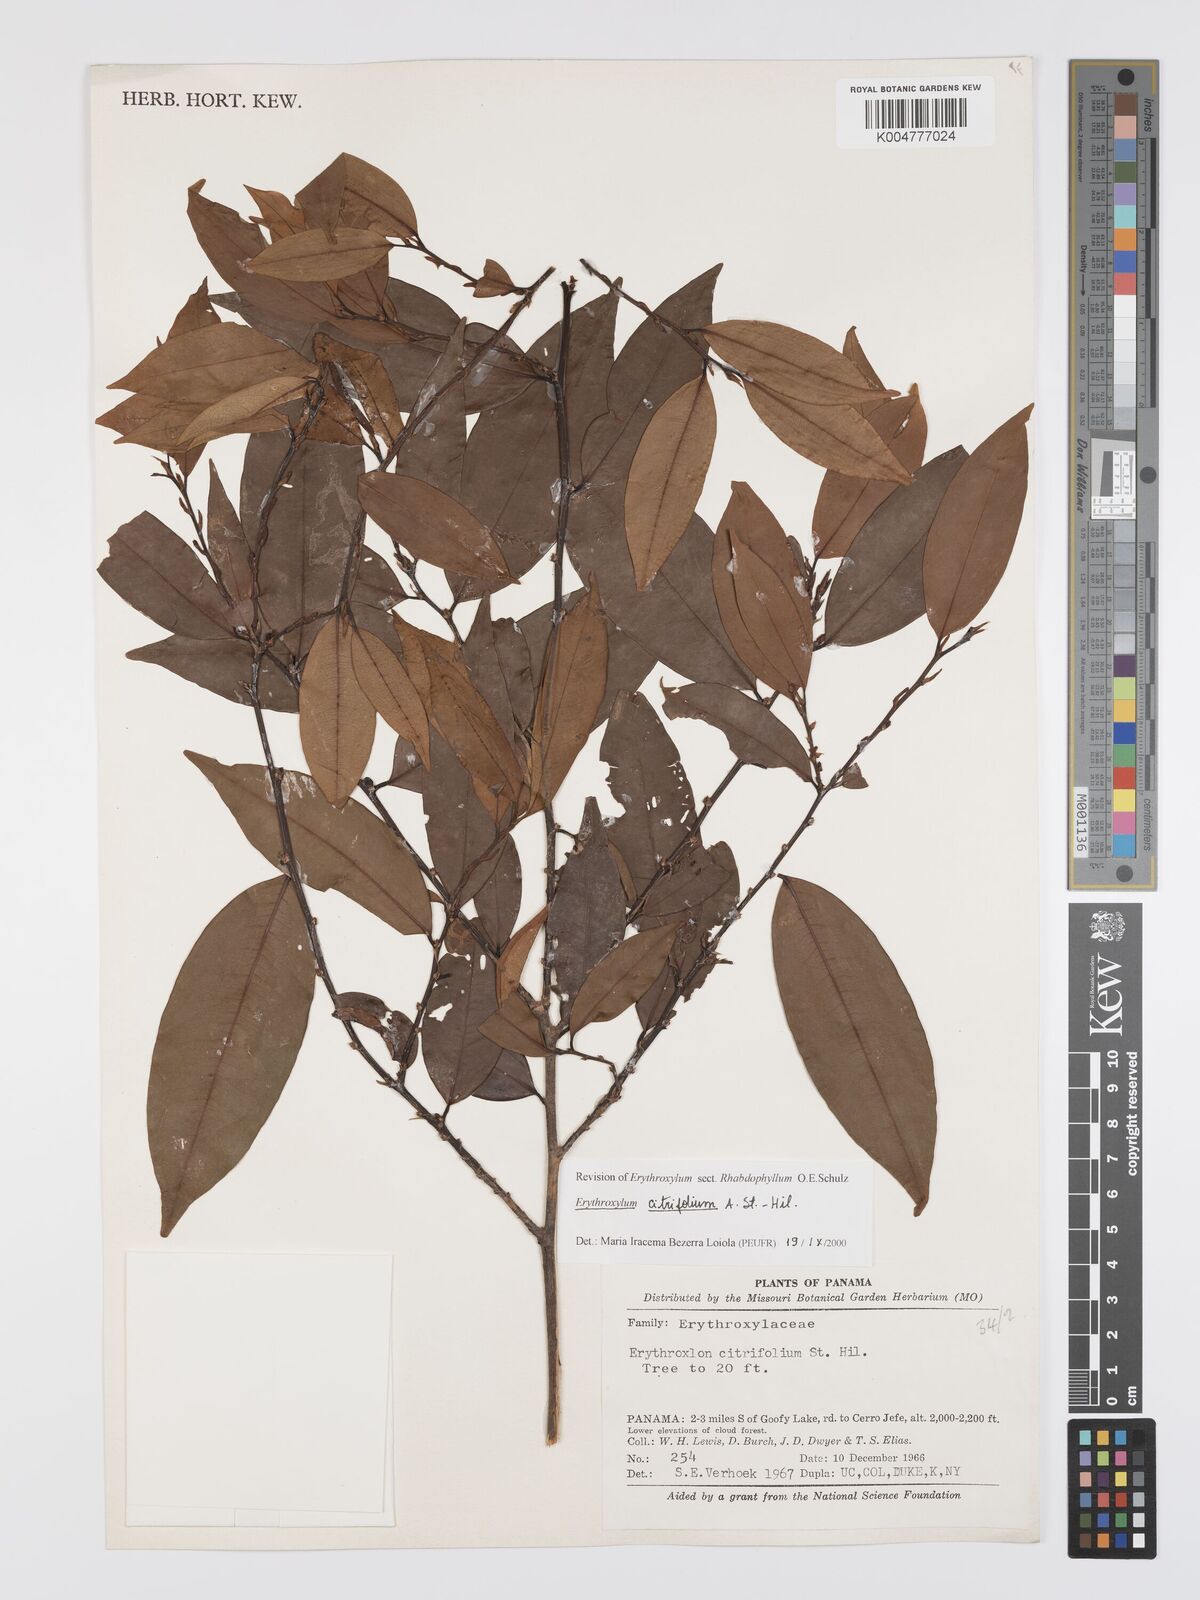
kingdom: Plantae
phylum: Tracheophyta
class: Magnoliopsida
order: Malpighiales
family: Erythroxylaceae
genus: Erythroxylum
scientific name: Erythroxylum citrifolium
